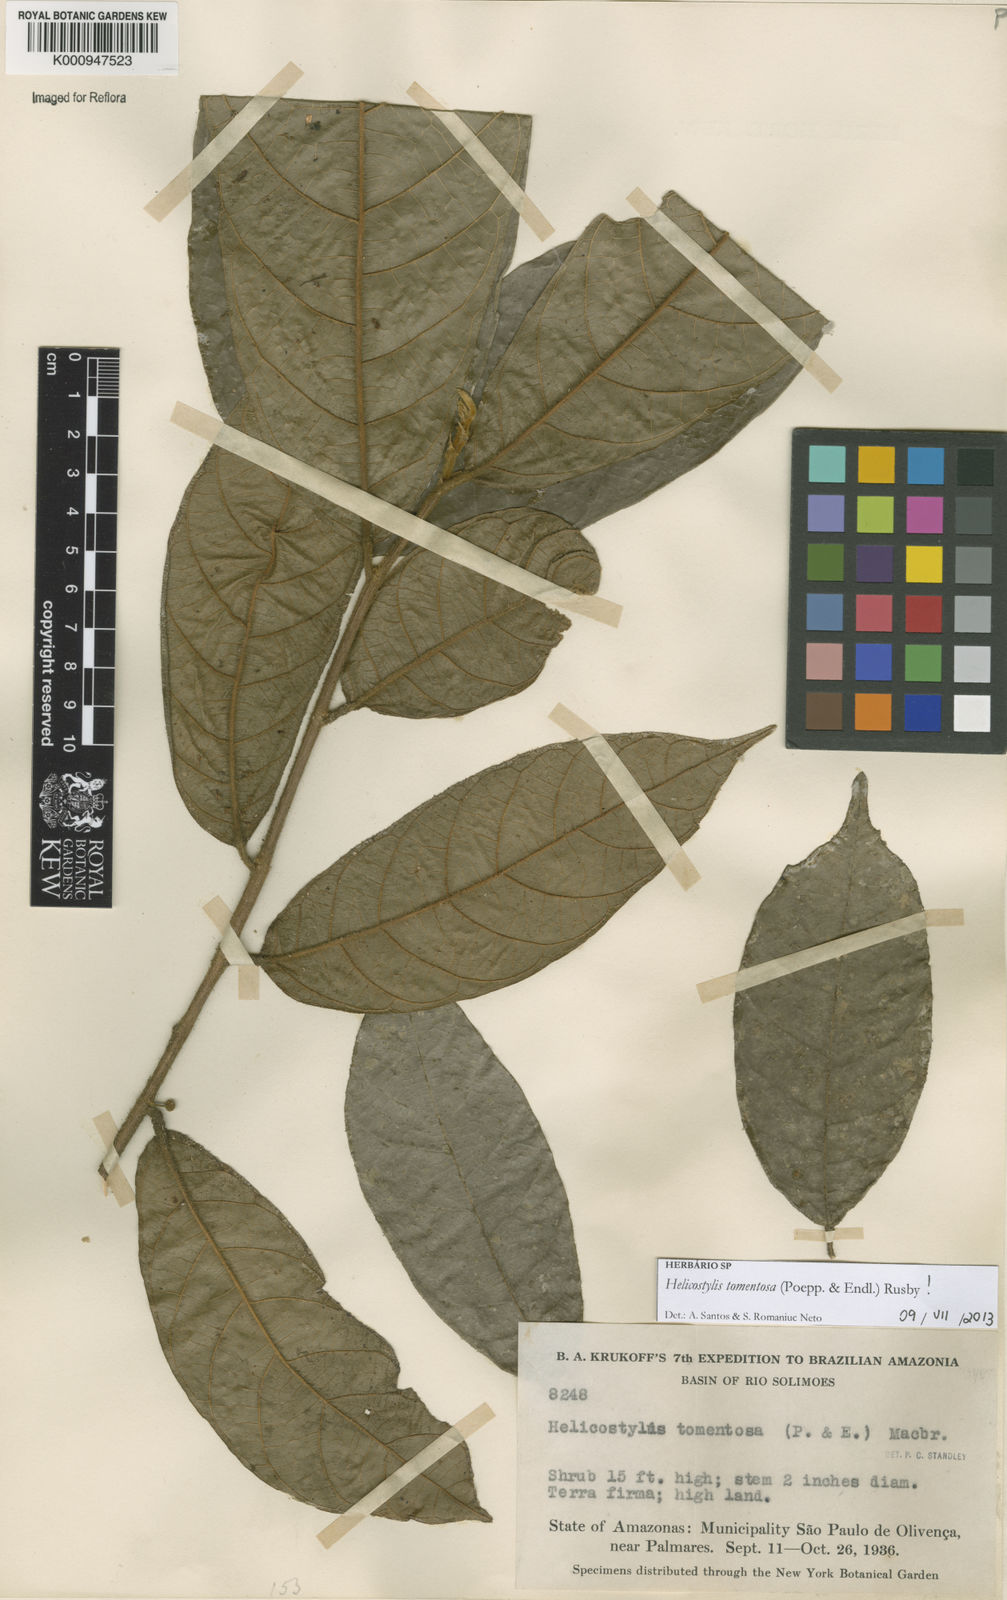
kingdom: Plantae
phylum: Tracheophyta
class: Magnoliopsida
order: Rosales
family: Moraceae
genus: Helicostylis
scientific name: Helicostylis
